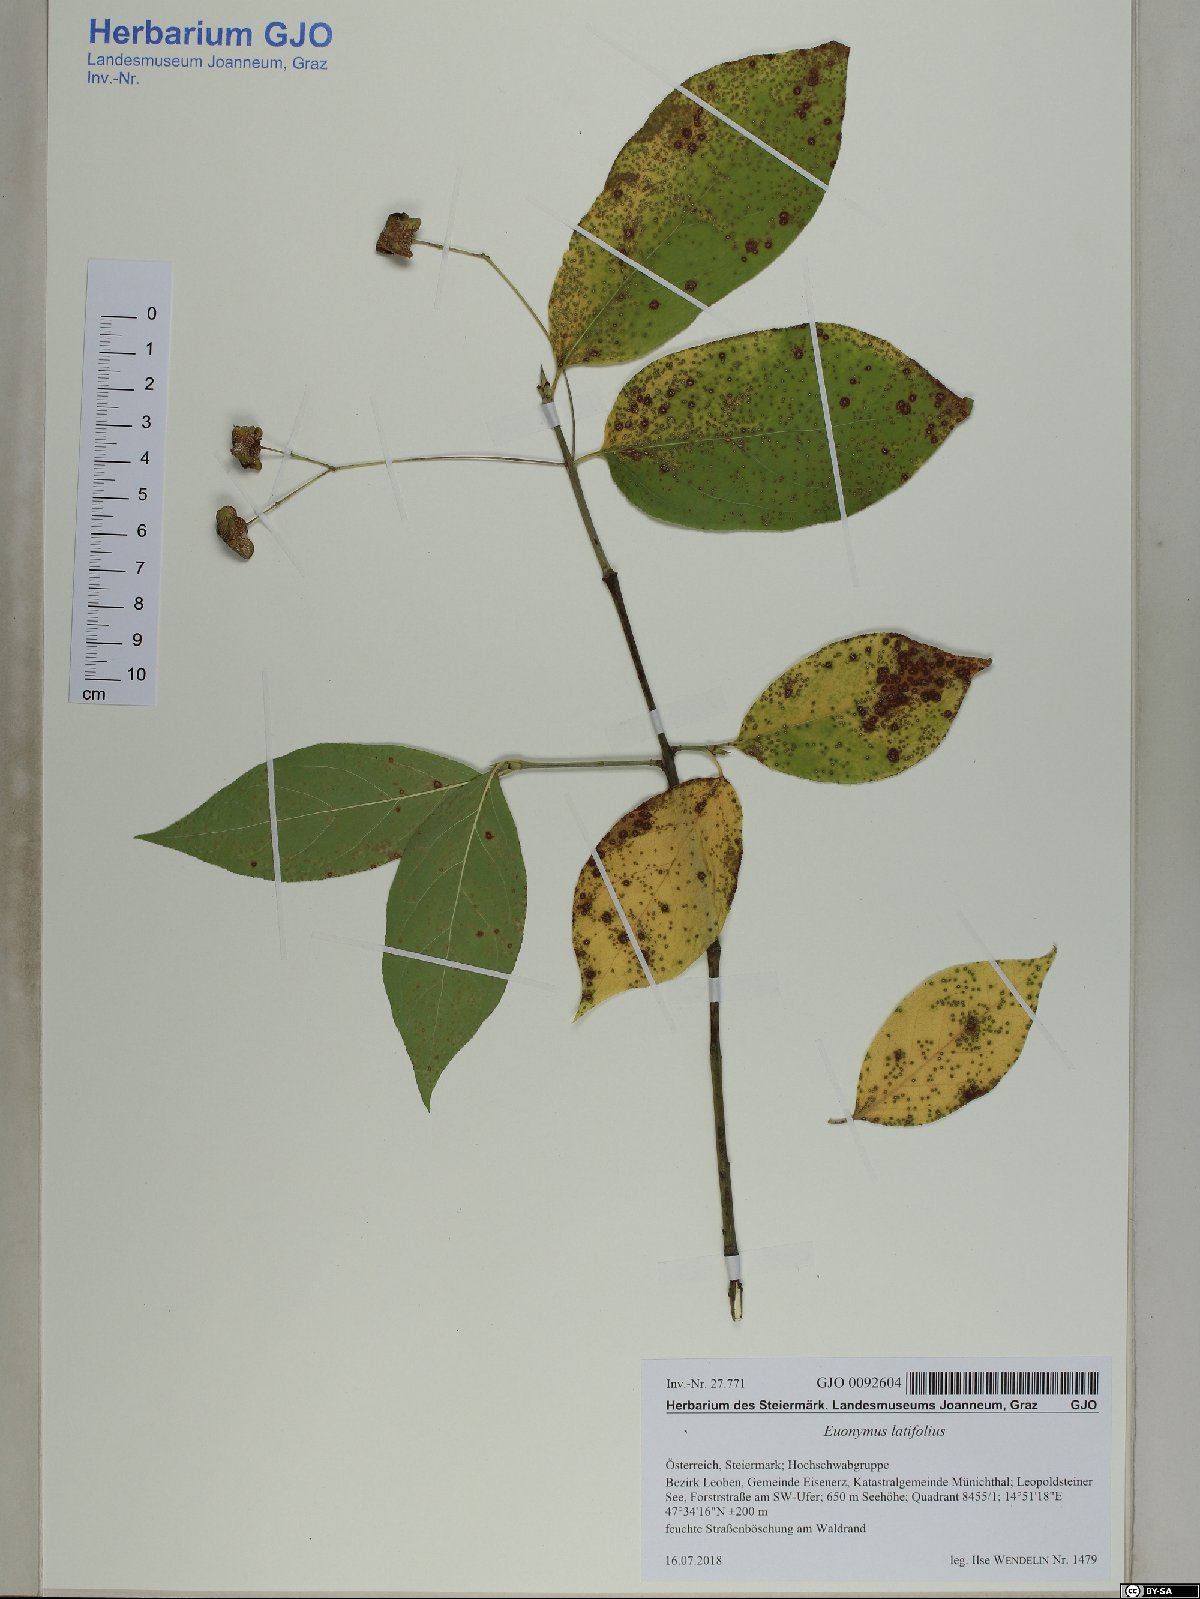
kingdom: Plantae
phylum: Tracheophyta
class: Magnoliopsida
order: Celastrales
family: Celastraceae
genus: Euonymus
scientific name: Euonymus latifolius
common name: Large-leaved spindle
